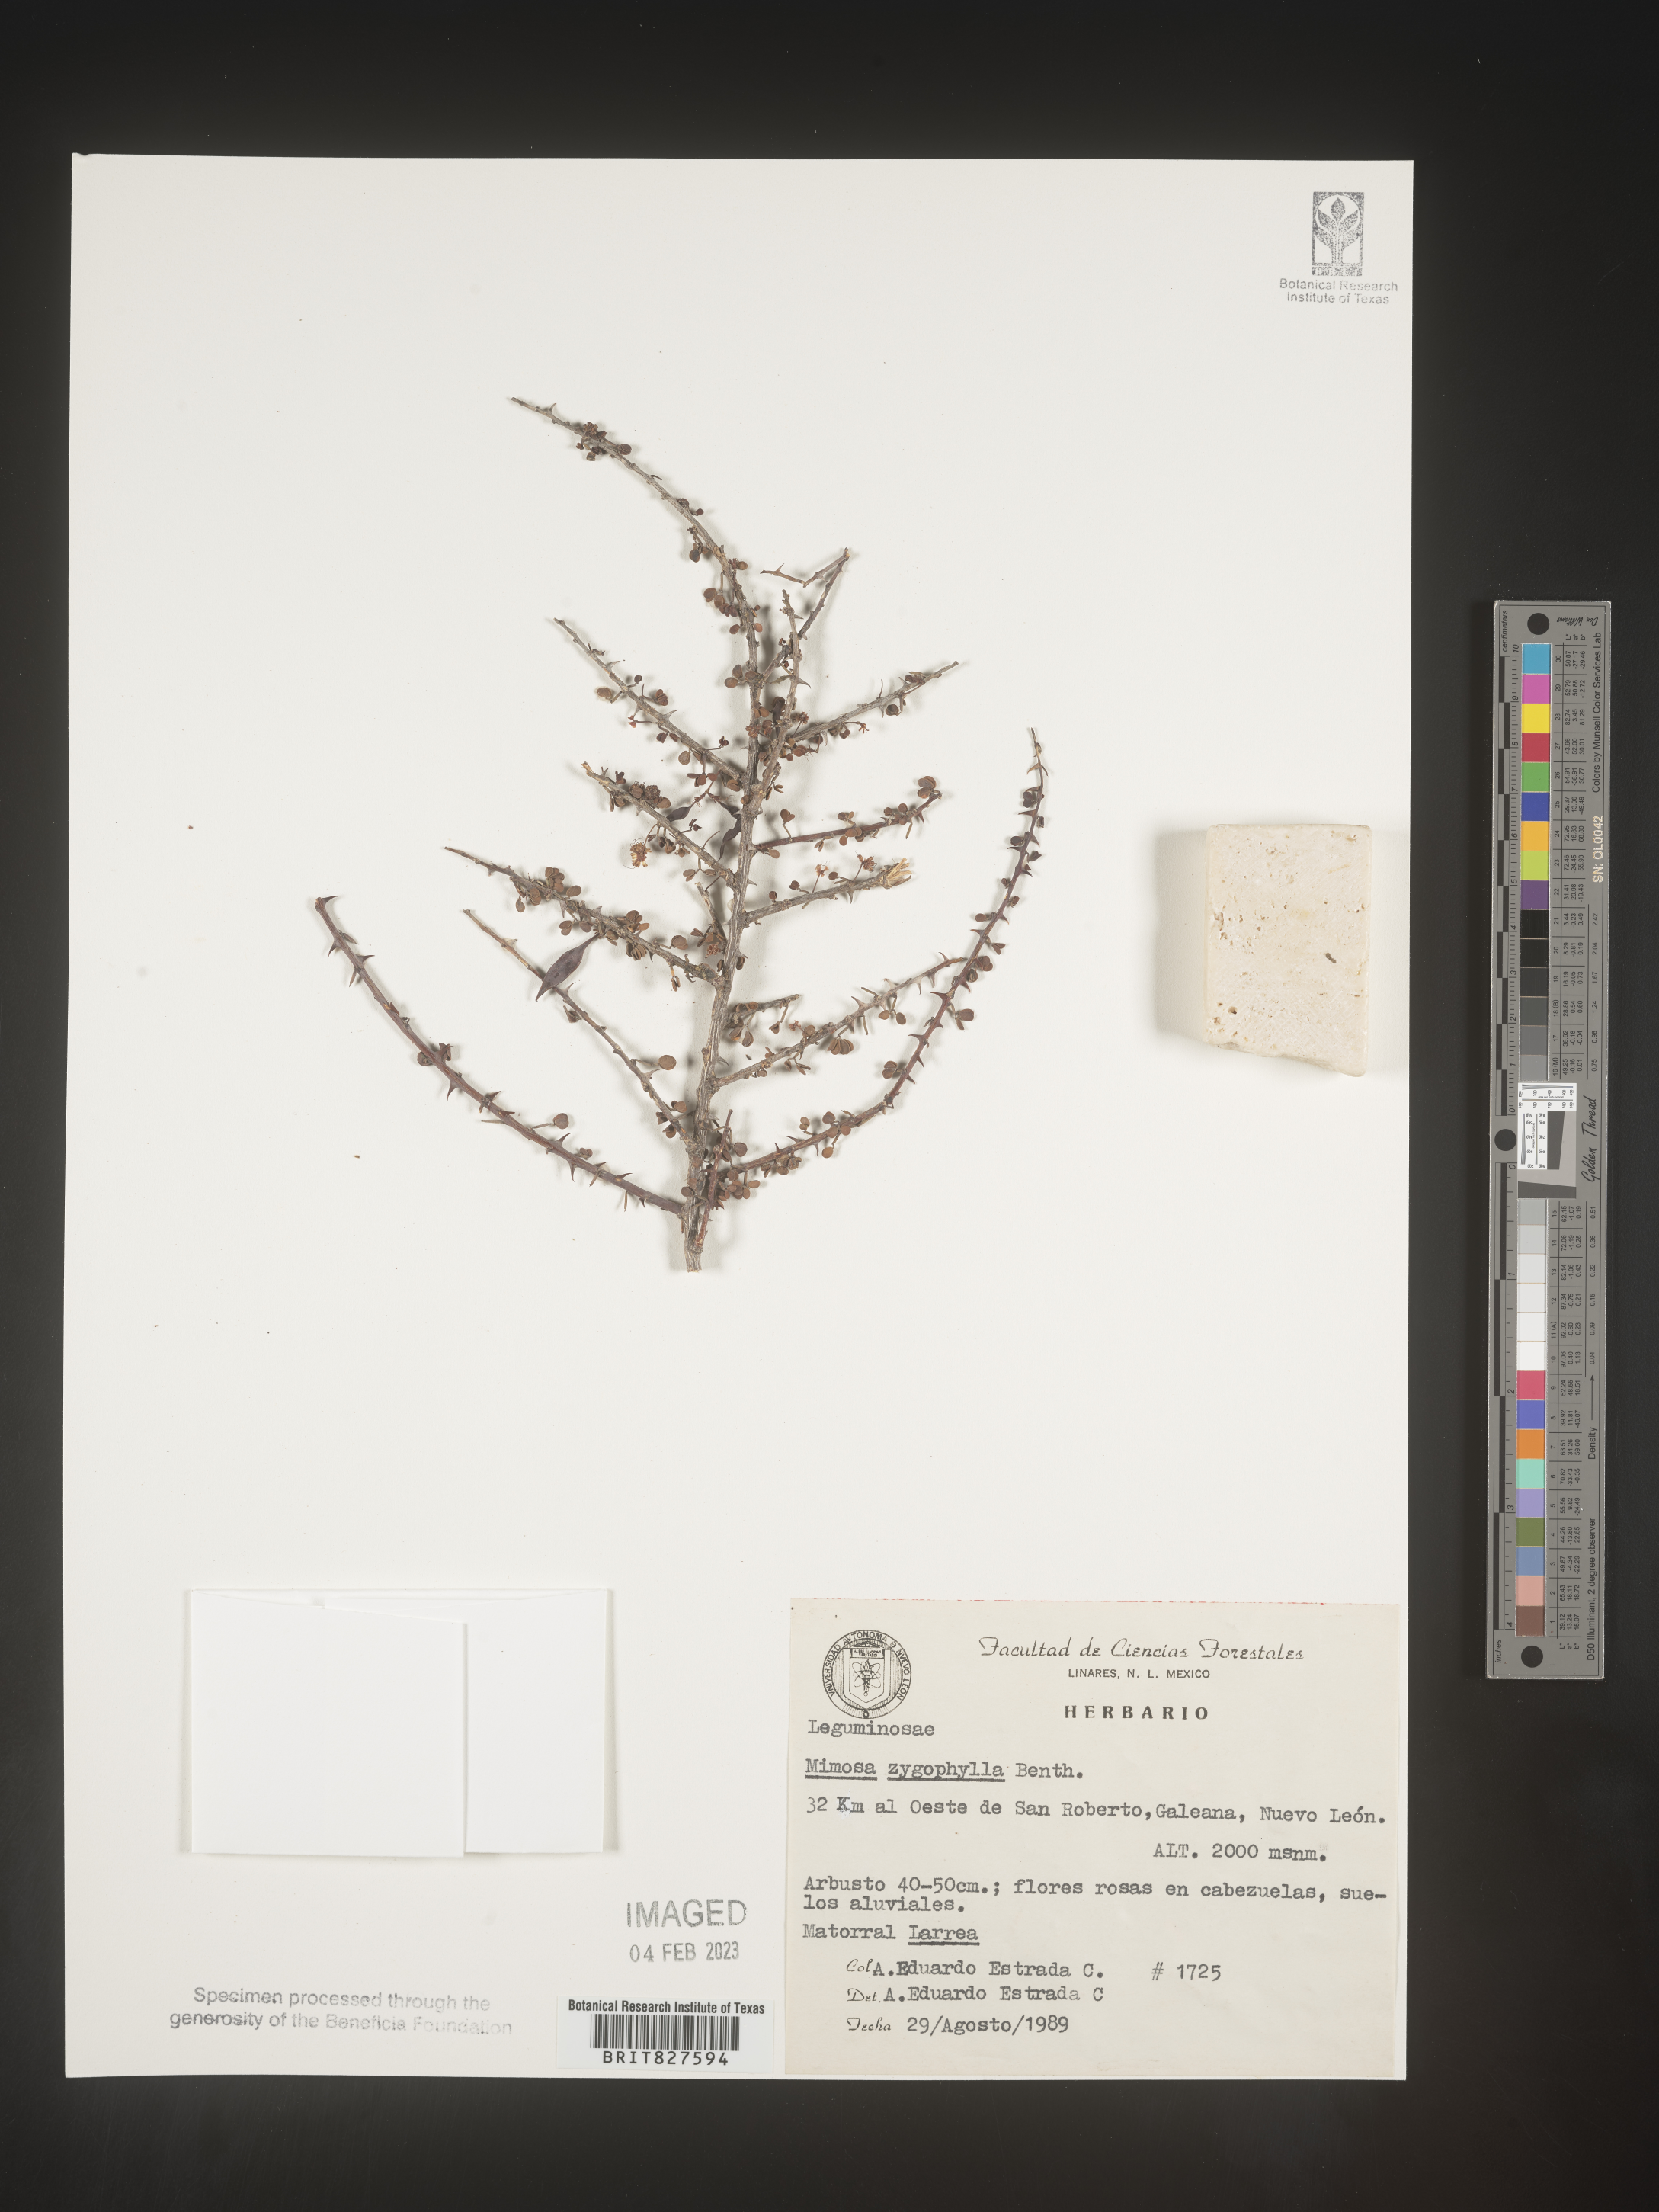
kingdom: Plantae
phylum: Tracheophyta
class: Magnoliopsida
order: Fabales
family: Fabaceae
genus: Mimosa
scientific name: Mimosa
